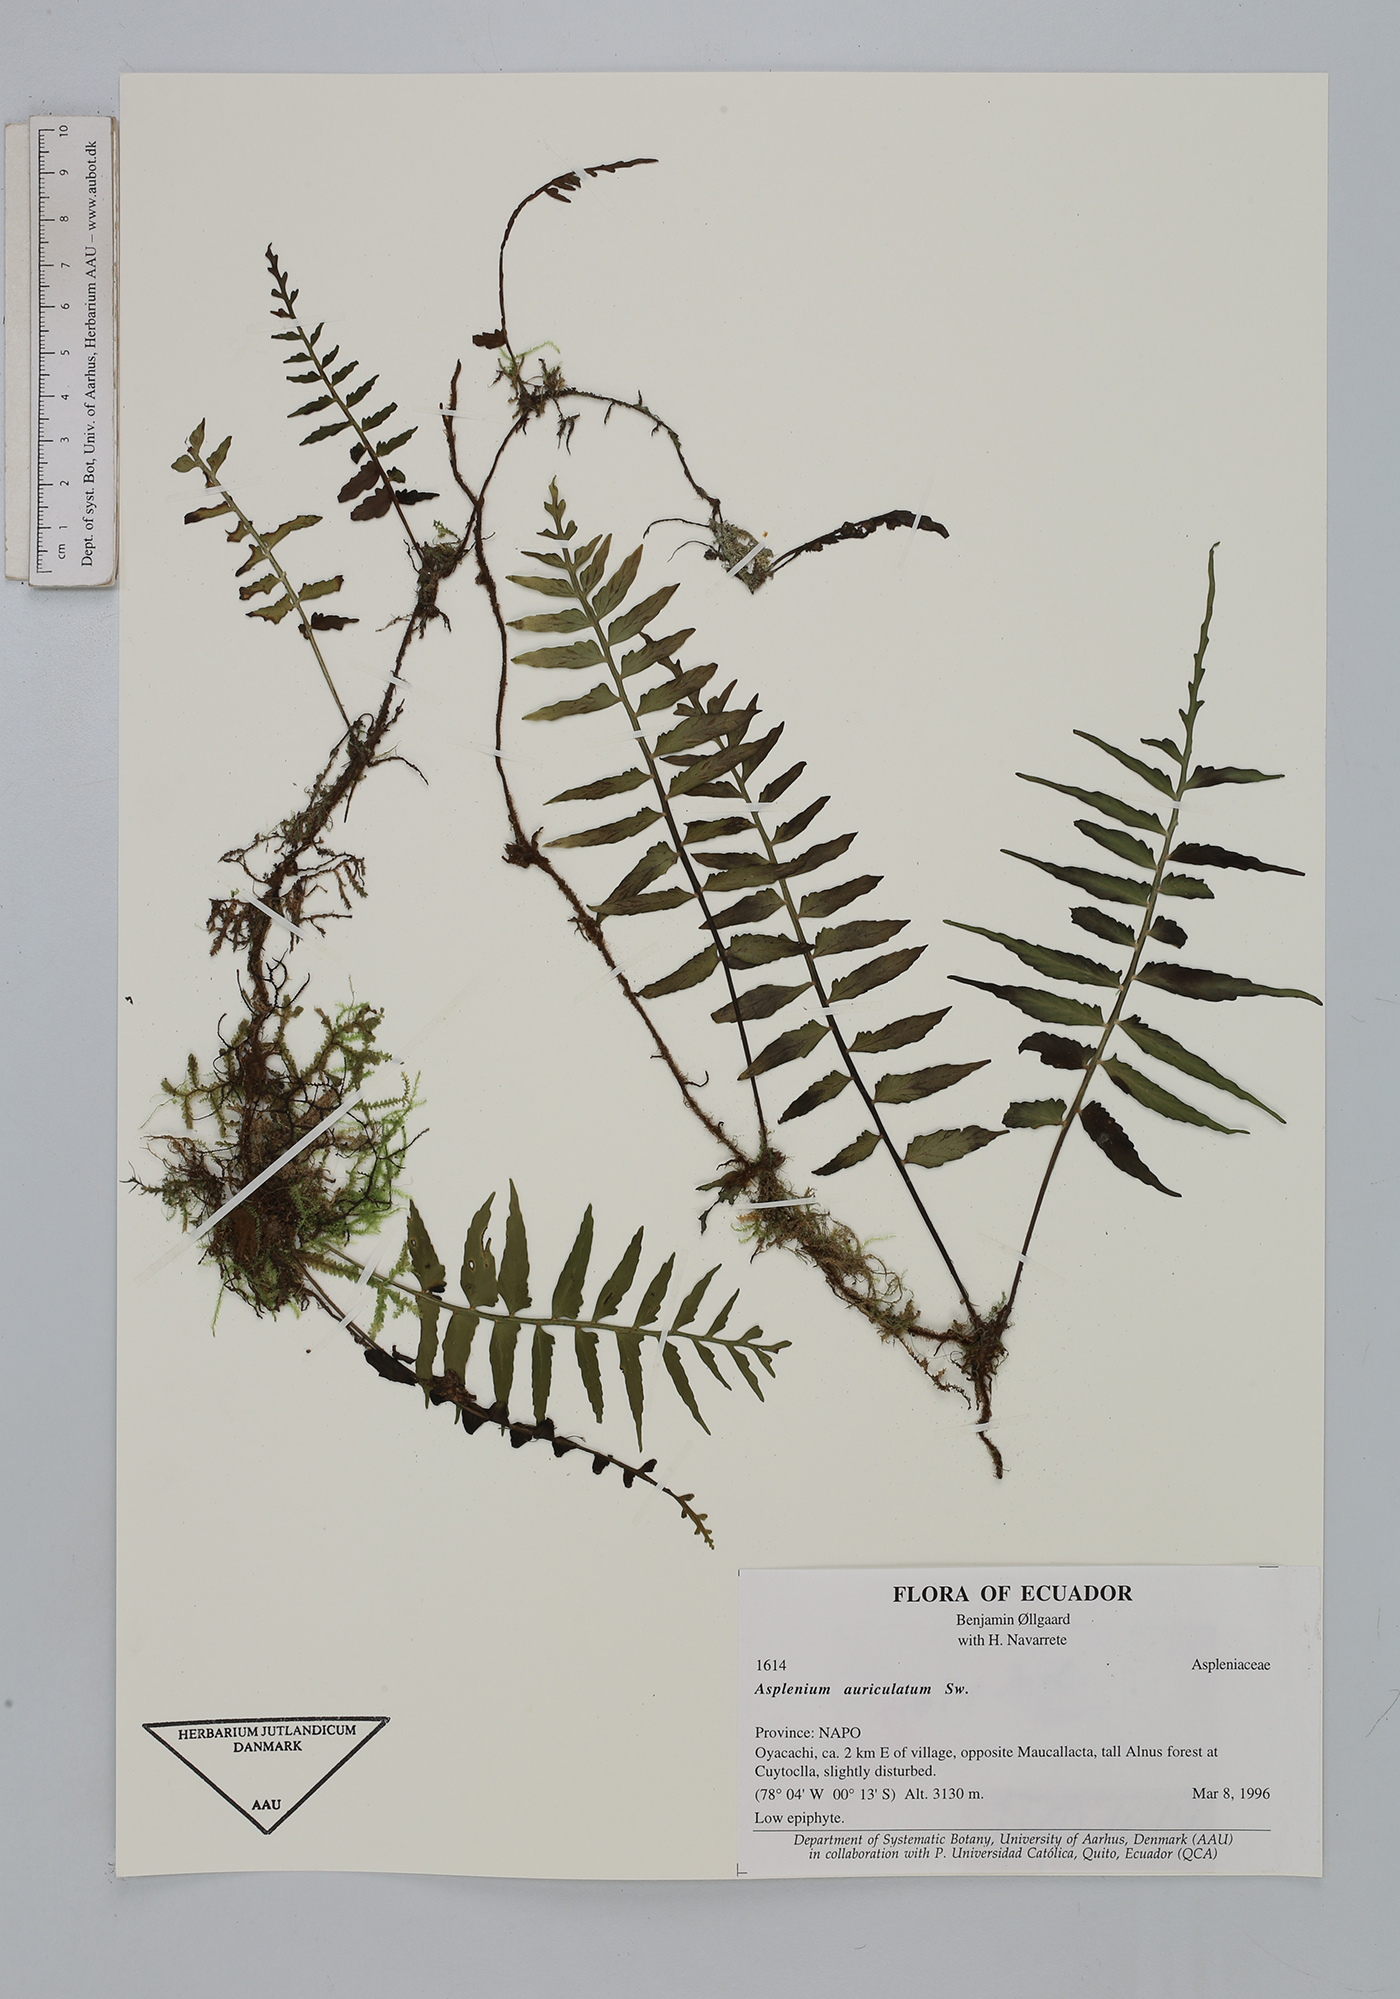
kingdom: Plantae
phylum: Tracheophyta
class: Polypodiopsida
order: Polypodiales
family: Aspleniaceae
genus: Asplenium
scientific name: Asplenium auriculatum
